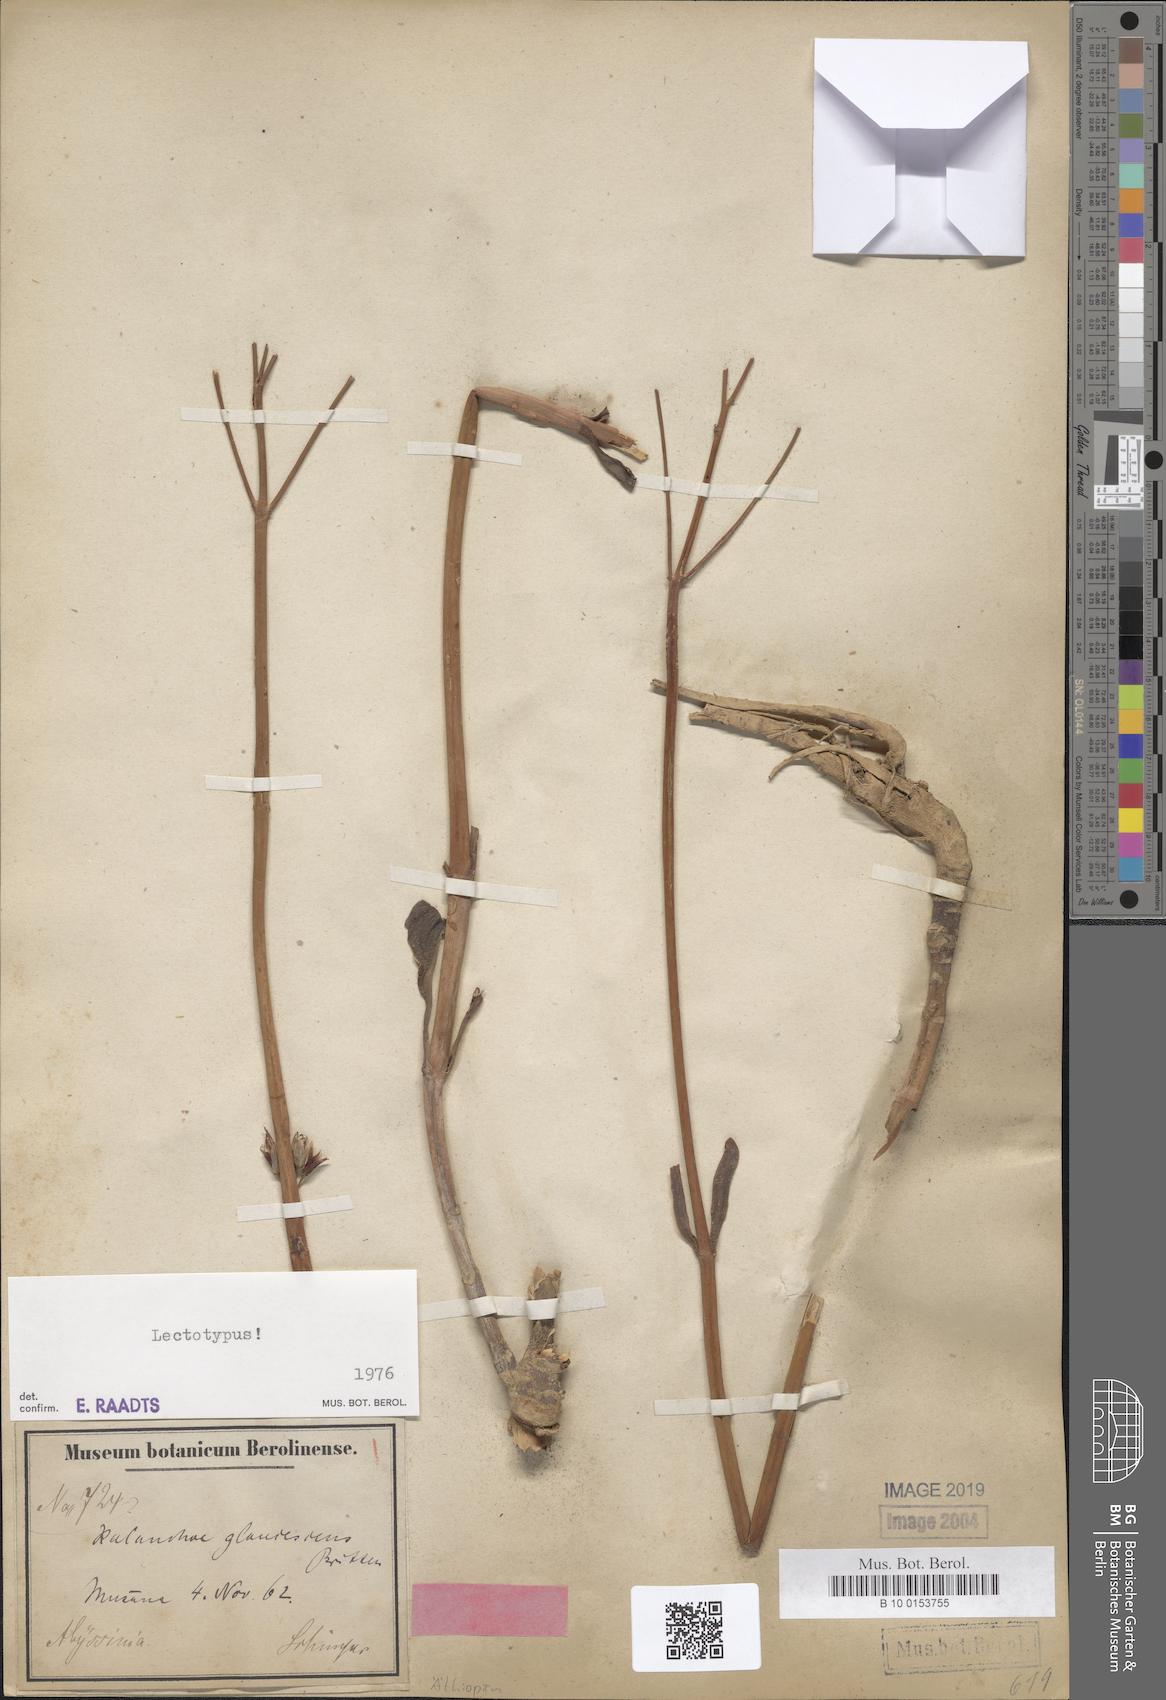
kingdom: Plantae
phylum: Tracheophyta
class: Magnoliopsida
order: Saxifragales
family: Crassulaceae
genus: Kalanchoe
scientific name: Kalanchoe glaucescens
